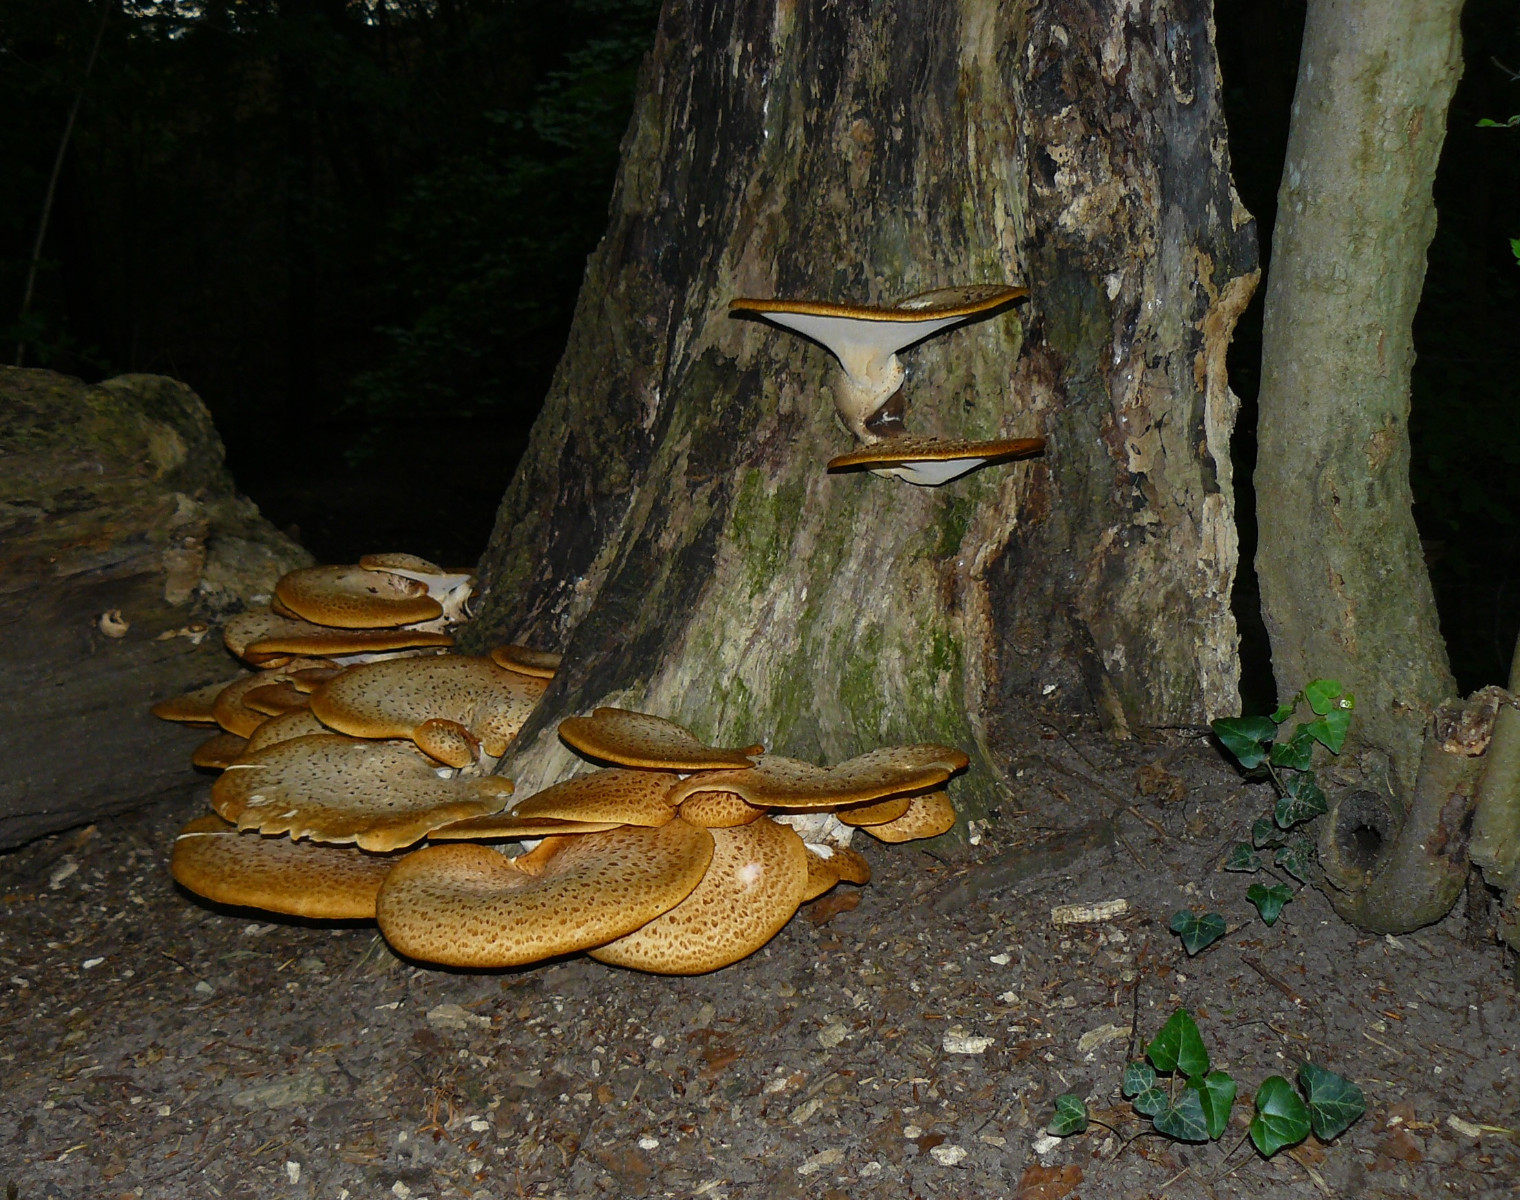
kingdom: Fungi
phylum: Basidiomycota
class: Agaricomycetes
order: Polyporales
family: Polyporaceae
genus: Cerioporus
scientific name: Cerioporus squamosus
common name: skællet stilkporesvamp
